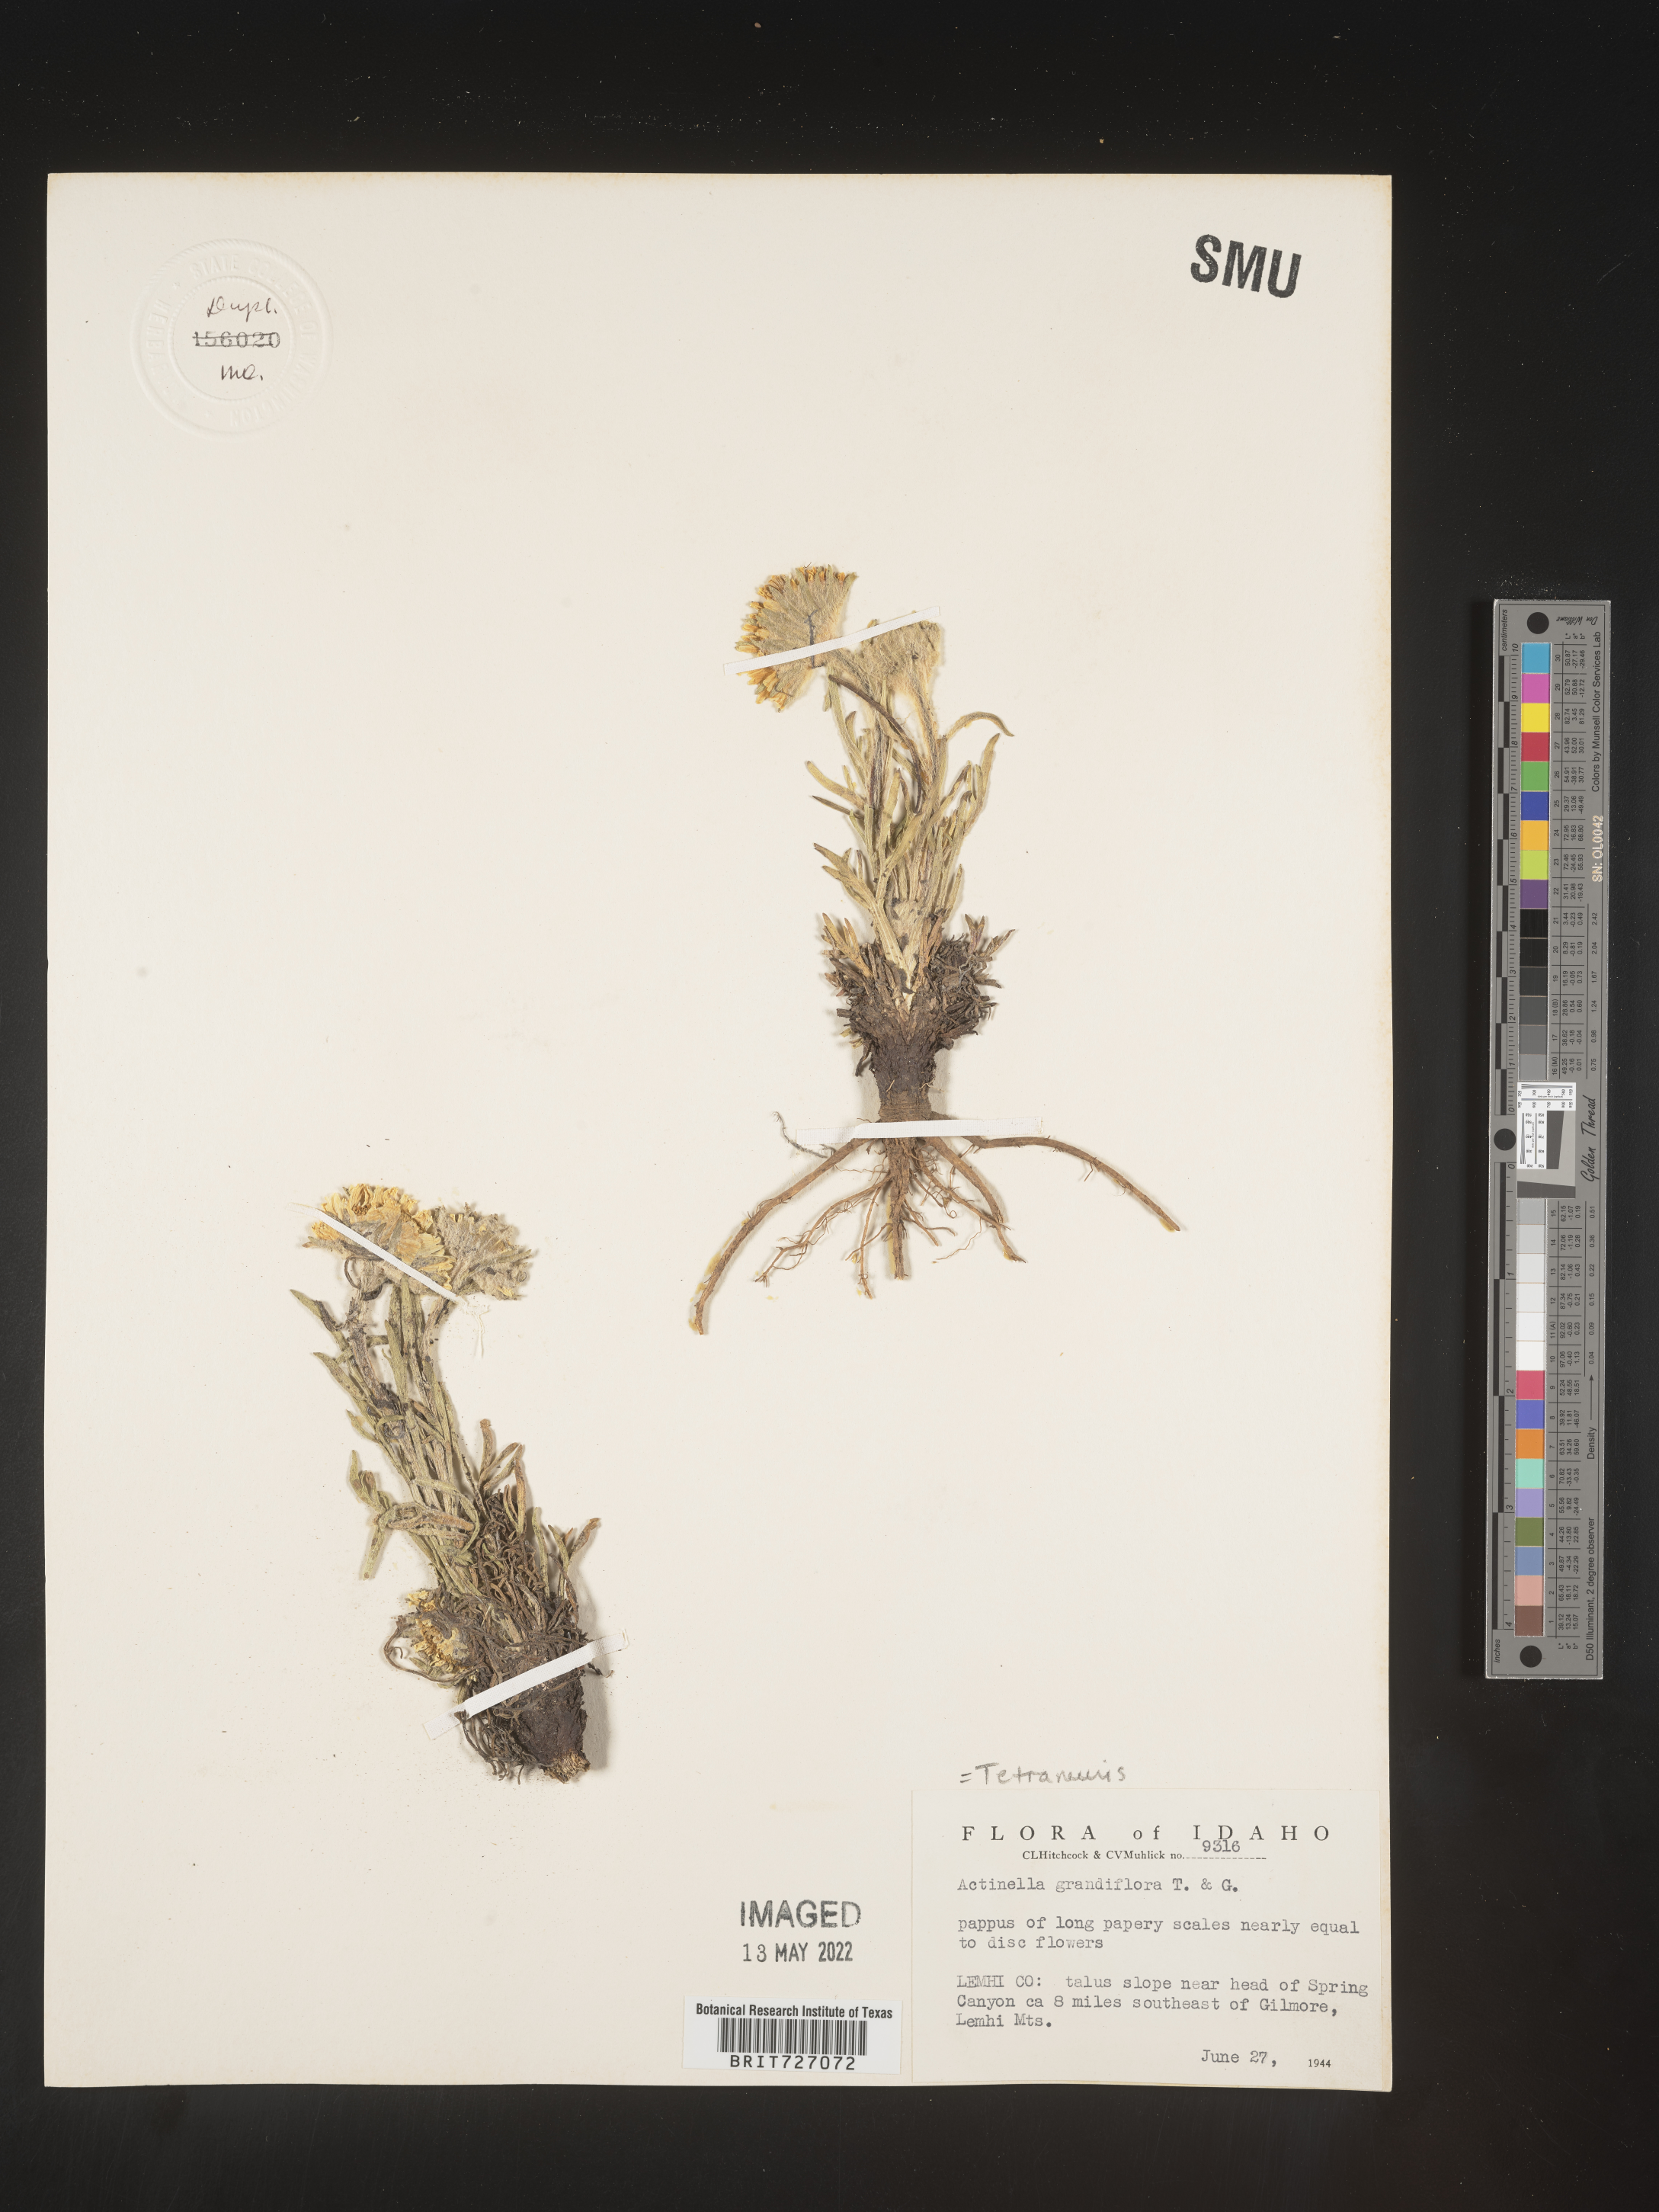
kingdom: Plantae
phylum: Tracheophyta
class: Magnoliopsida
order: Asterales
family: Asteraceae
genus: Hymenoxys
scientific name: Hymenoxys grandiflora
